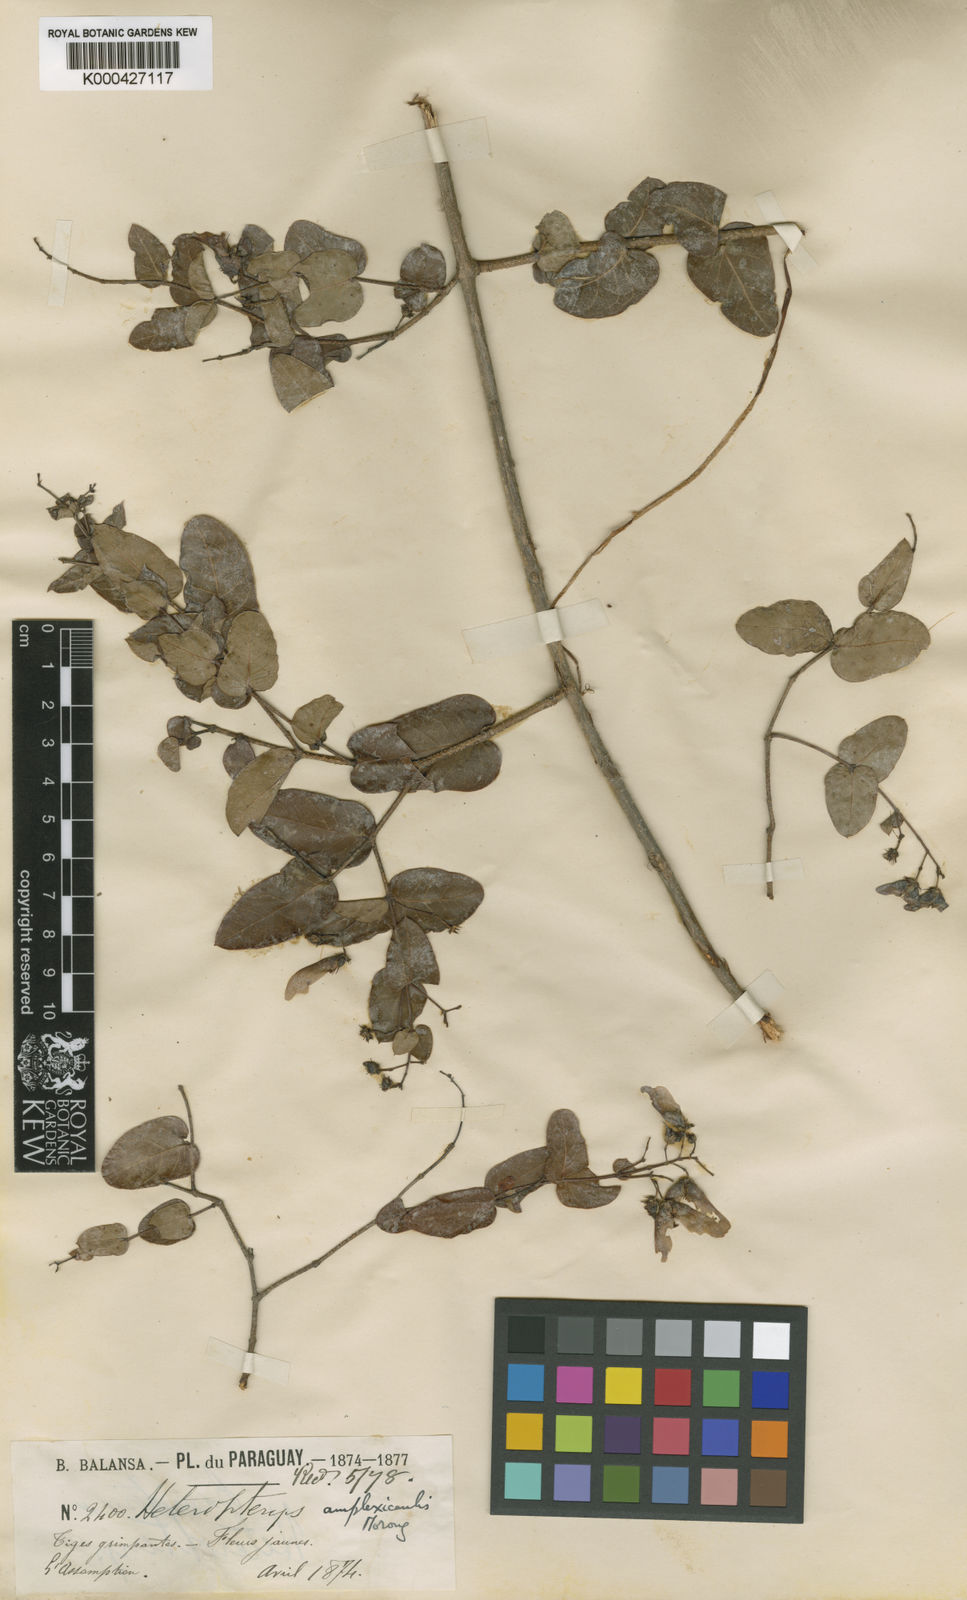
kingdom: Plantae
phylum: Tracheophyta
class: Magnoliopsida
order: Malpighiales
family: Malpighiaceae
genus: Heteropterys
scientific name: Heteropterys hypericifolia
